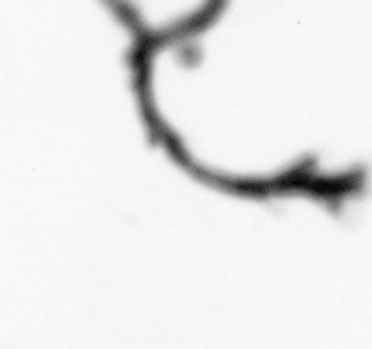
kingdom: Animalia
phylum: Cnidaria
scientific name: Cnidaria
